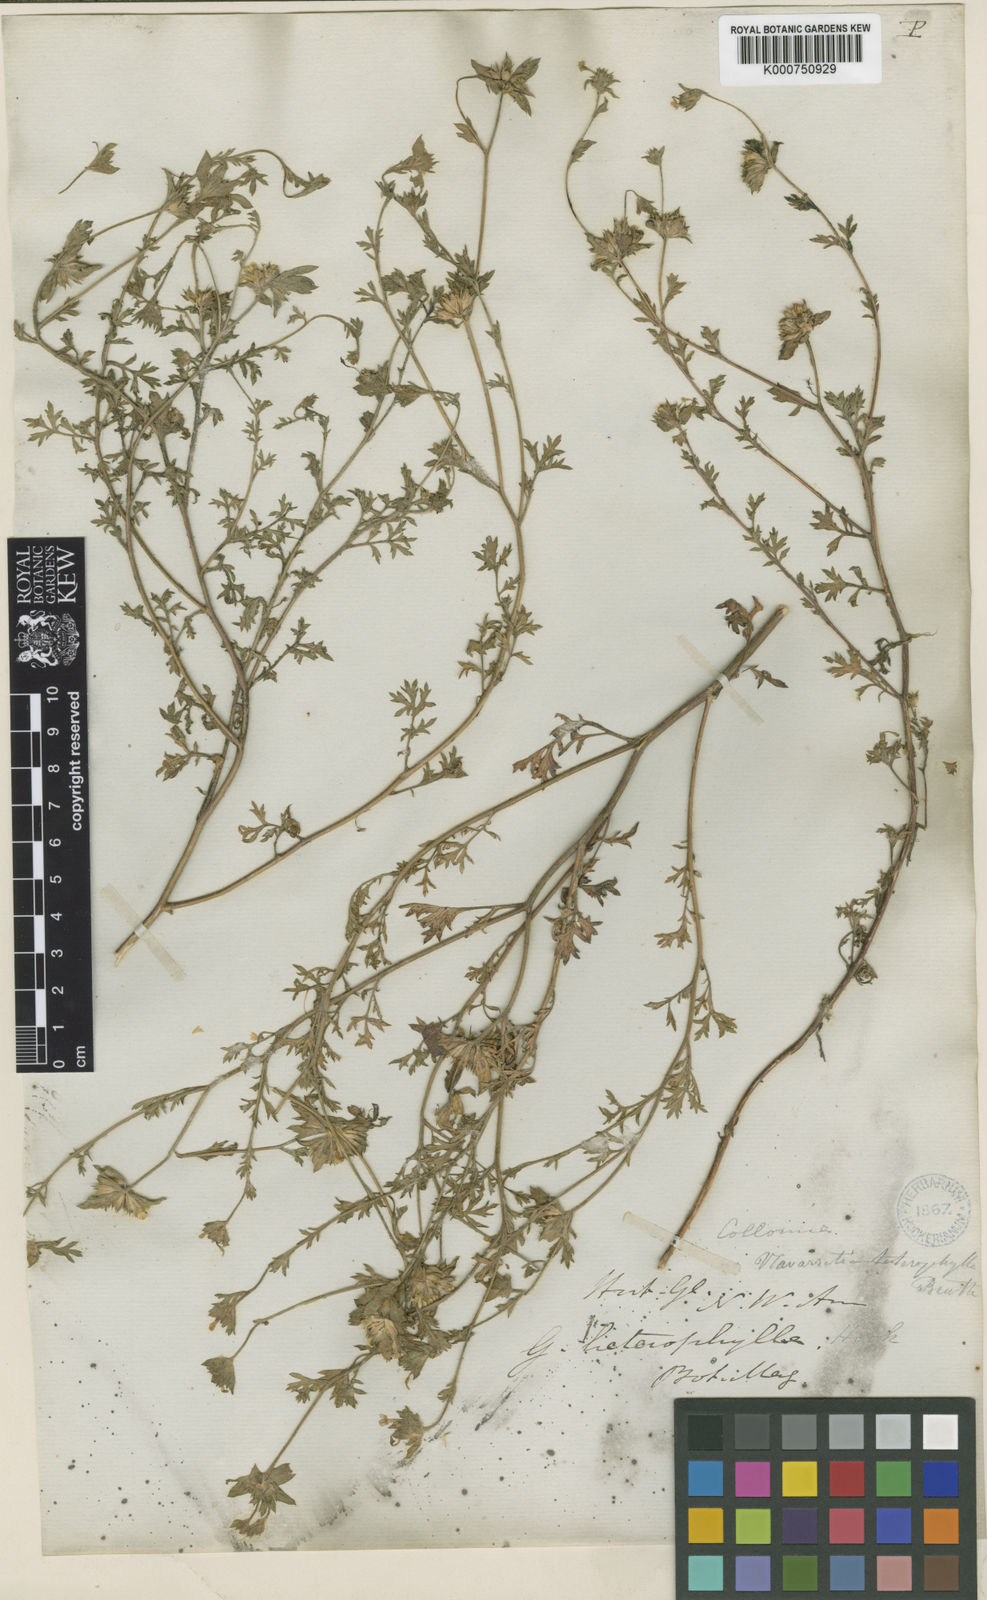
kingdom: Plantae
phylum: Tracheophyta
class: Magnoliopsida
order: Ericales
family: Polemoniaceae
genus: Collomia
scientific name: Collomia heterophylla
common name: Variable-leaved collomia
